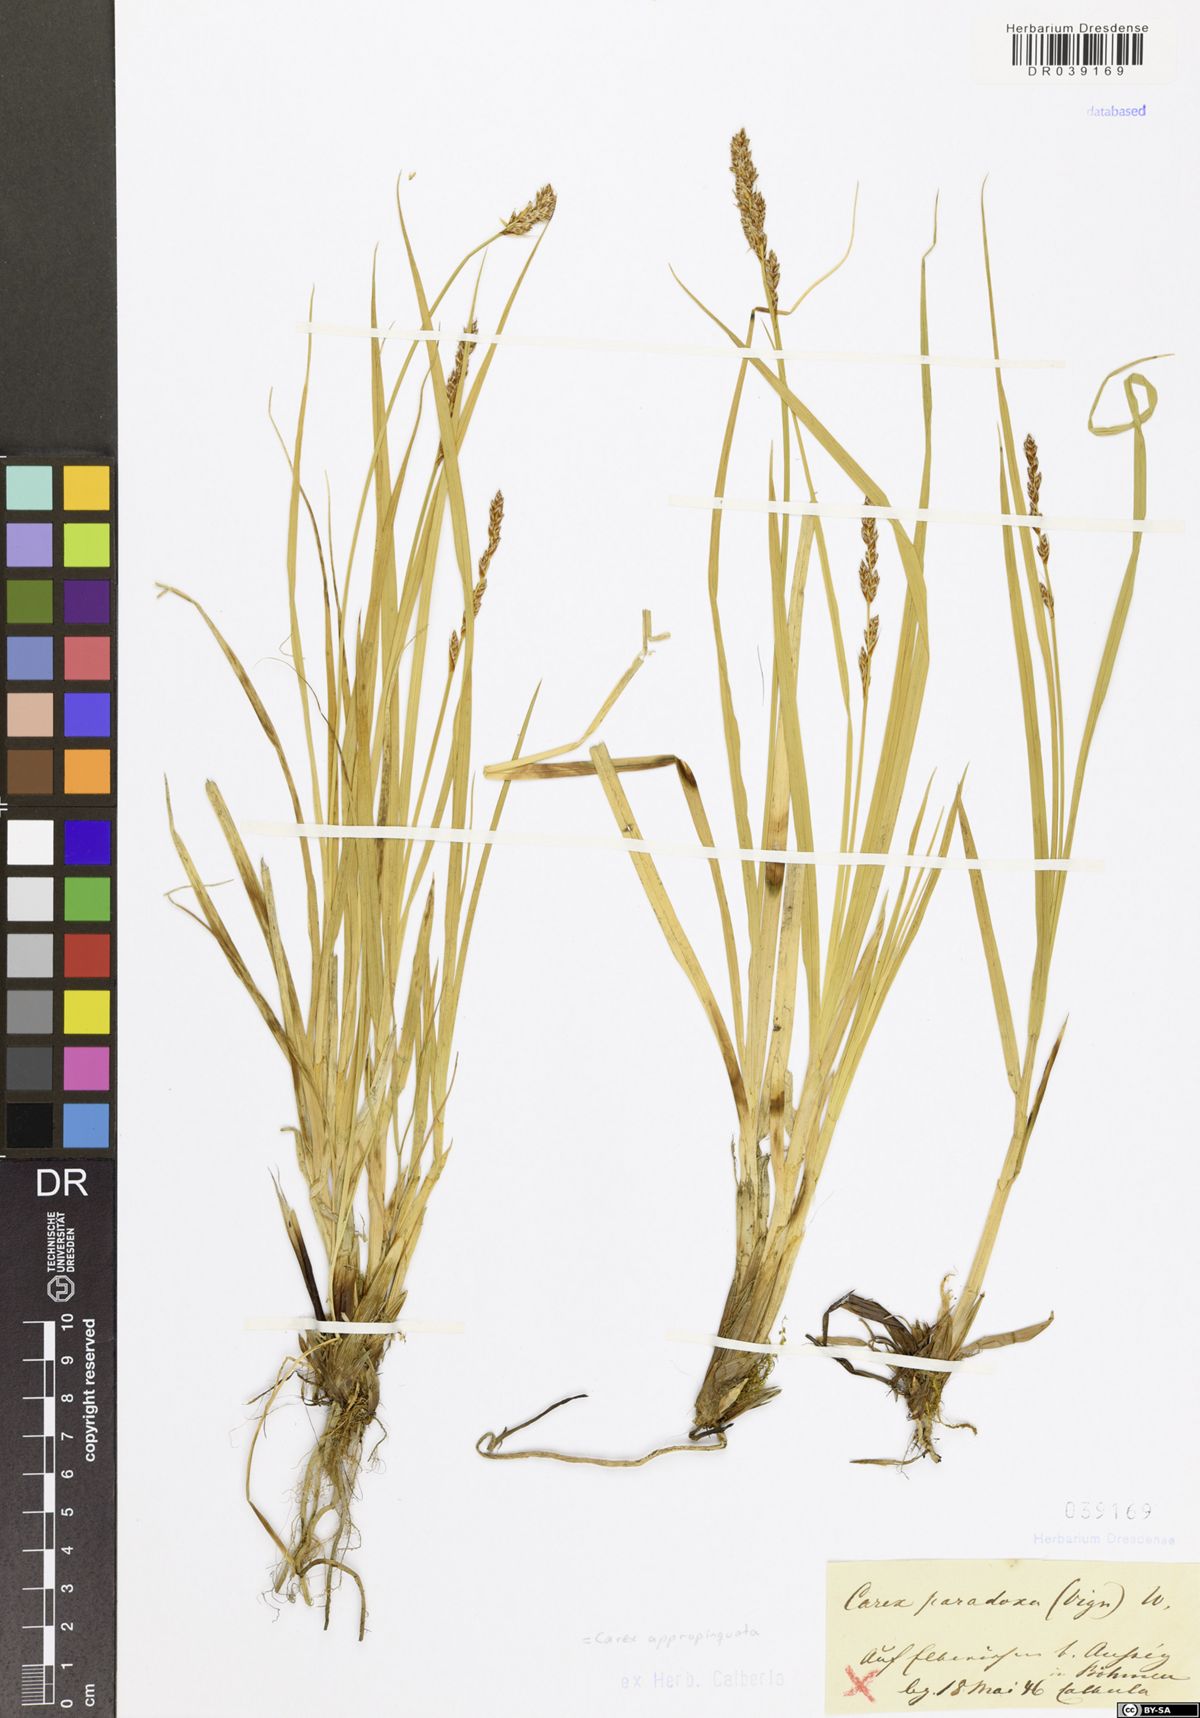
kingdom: Plantae
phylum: Tracheophyta
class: Liliopsida
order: Poales
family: Cyperaceae
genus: Carex
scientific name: Carex appropinquata
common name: Fibrous tussock-sedge
